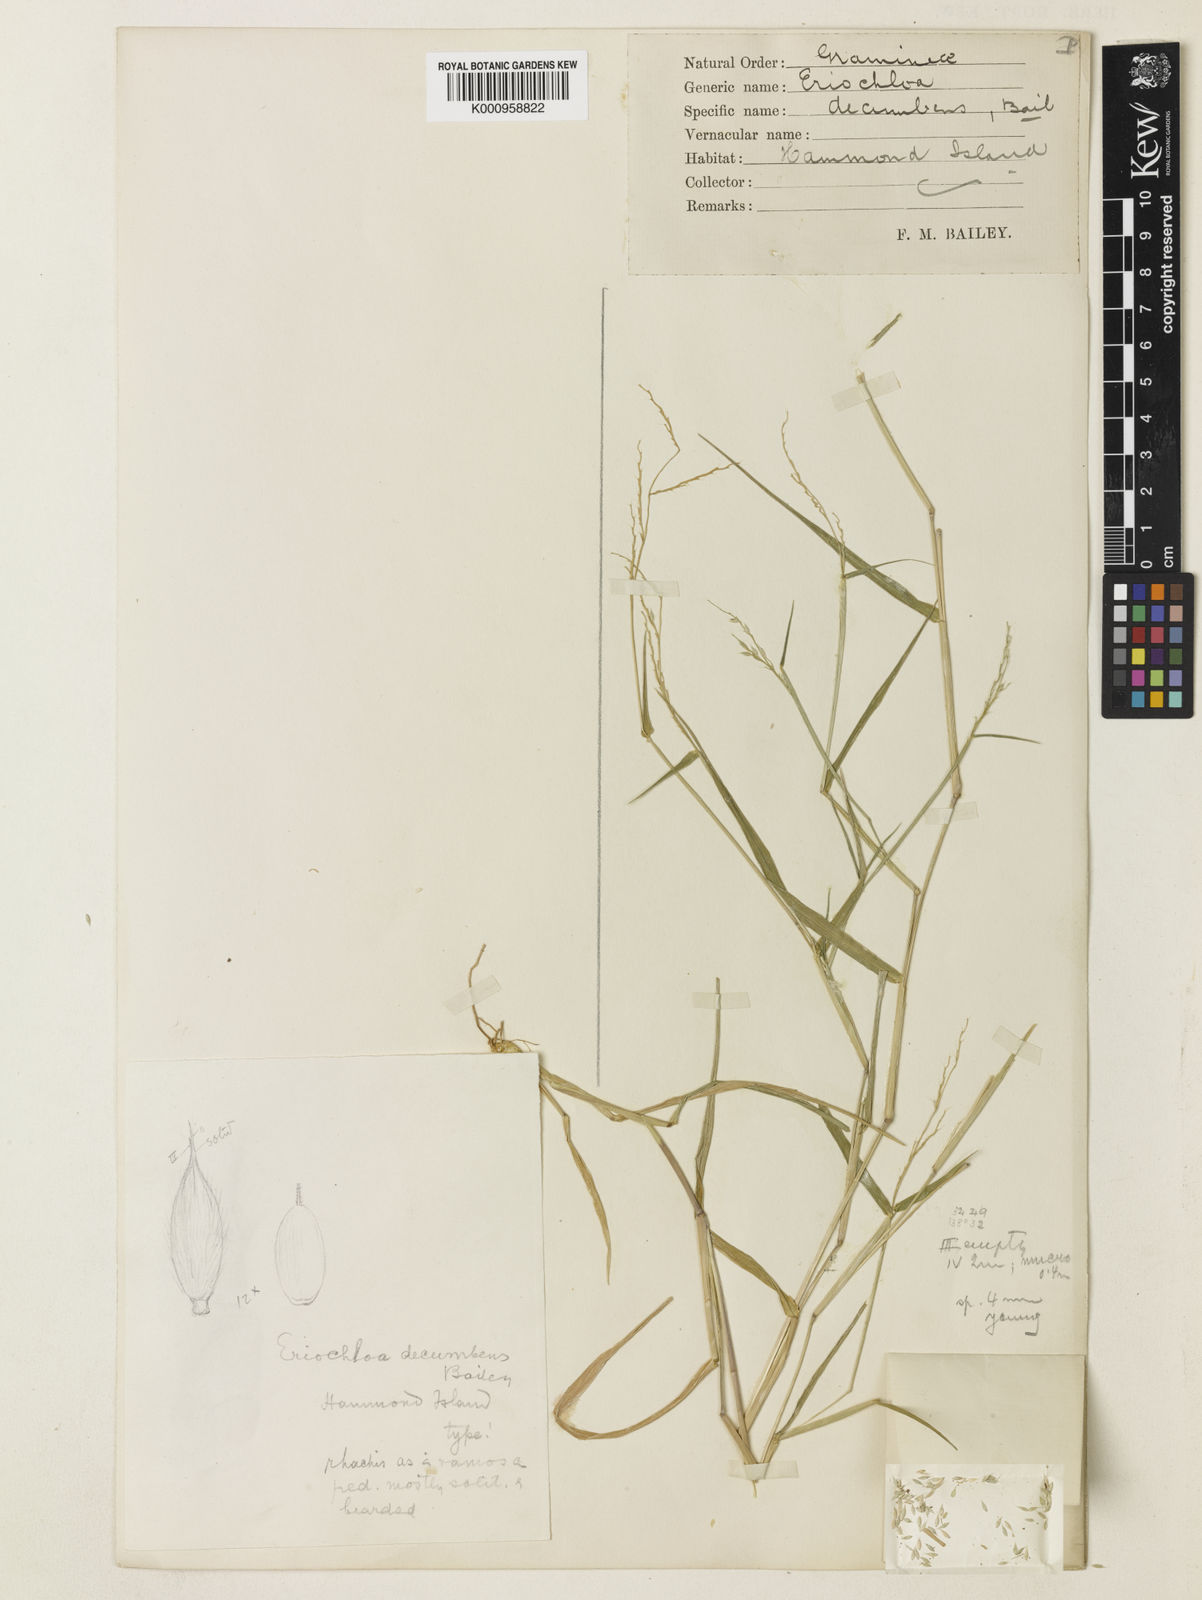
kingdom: Plantae
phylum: Tracheophyta
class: Liliopsida
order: Poales
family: Poaceae
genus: Eriochloa
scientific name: Eriochloa barbatus
